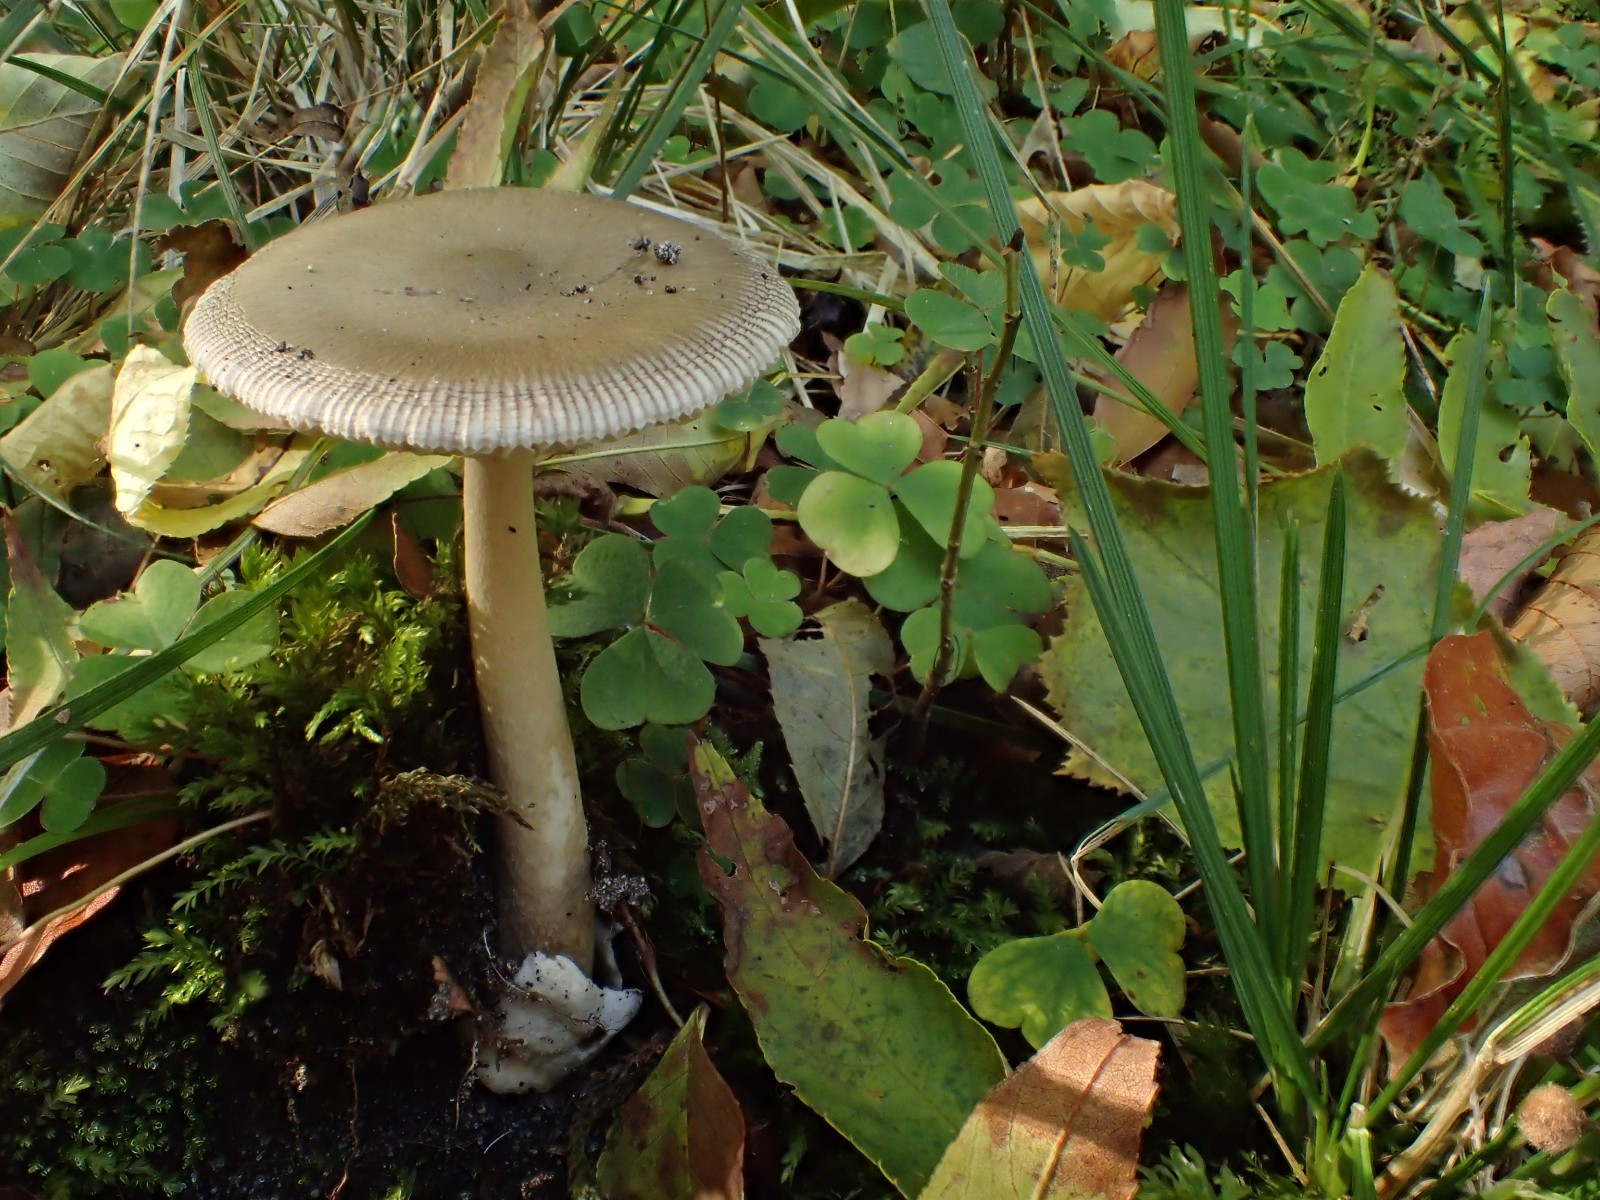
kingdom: Fungi
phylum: Basidiomycota
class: Agaricomycetes
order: Agaricales
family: Amanitaceae
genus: Amanita
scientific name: Amanita vaginata
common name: grå kam-fluesvamp
